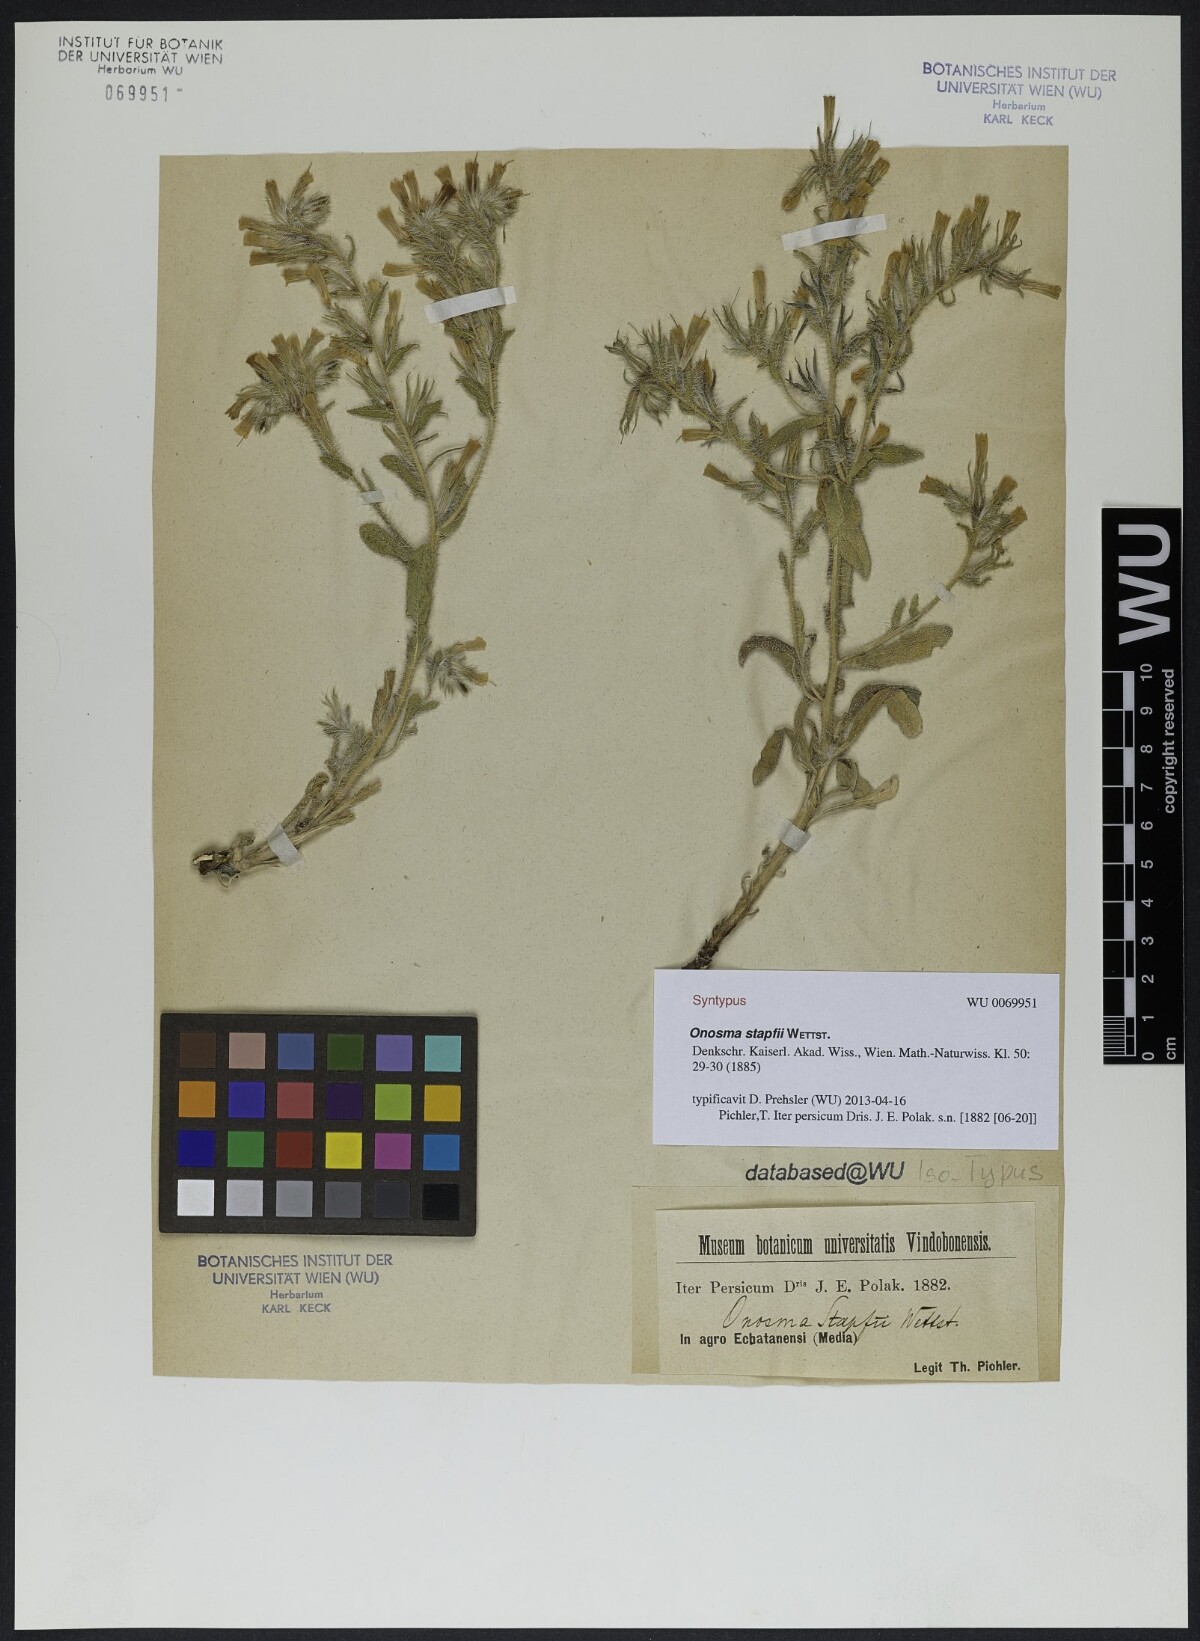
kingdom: Plantae
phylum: Tracheophyta
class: Magnoliopsida
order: Boraginales
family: Boraginaceae
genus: Onosma
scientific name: Onosma microcarpa
